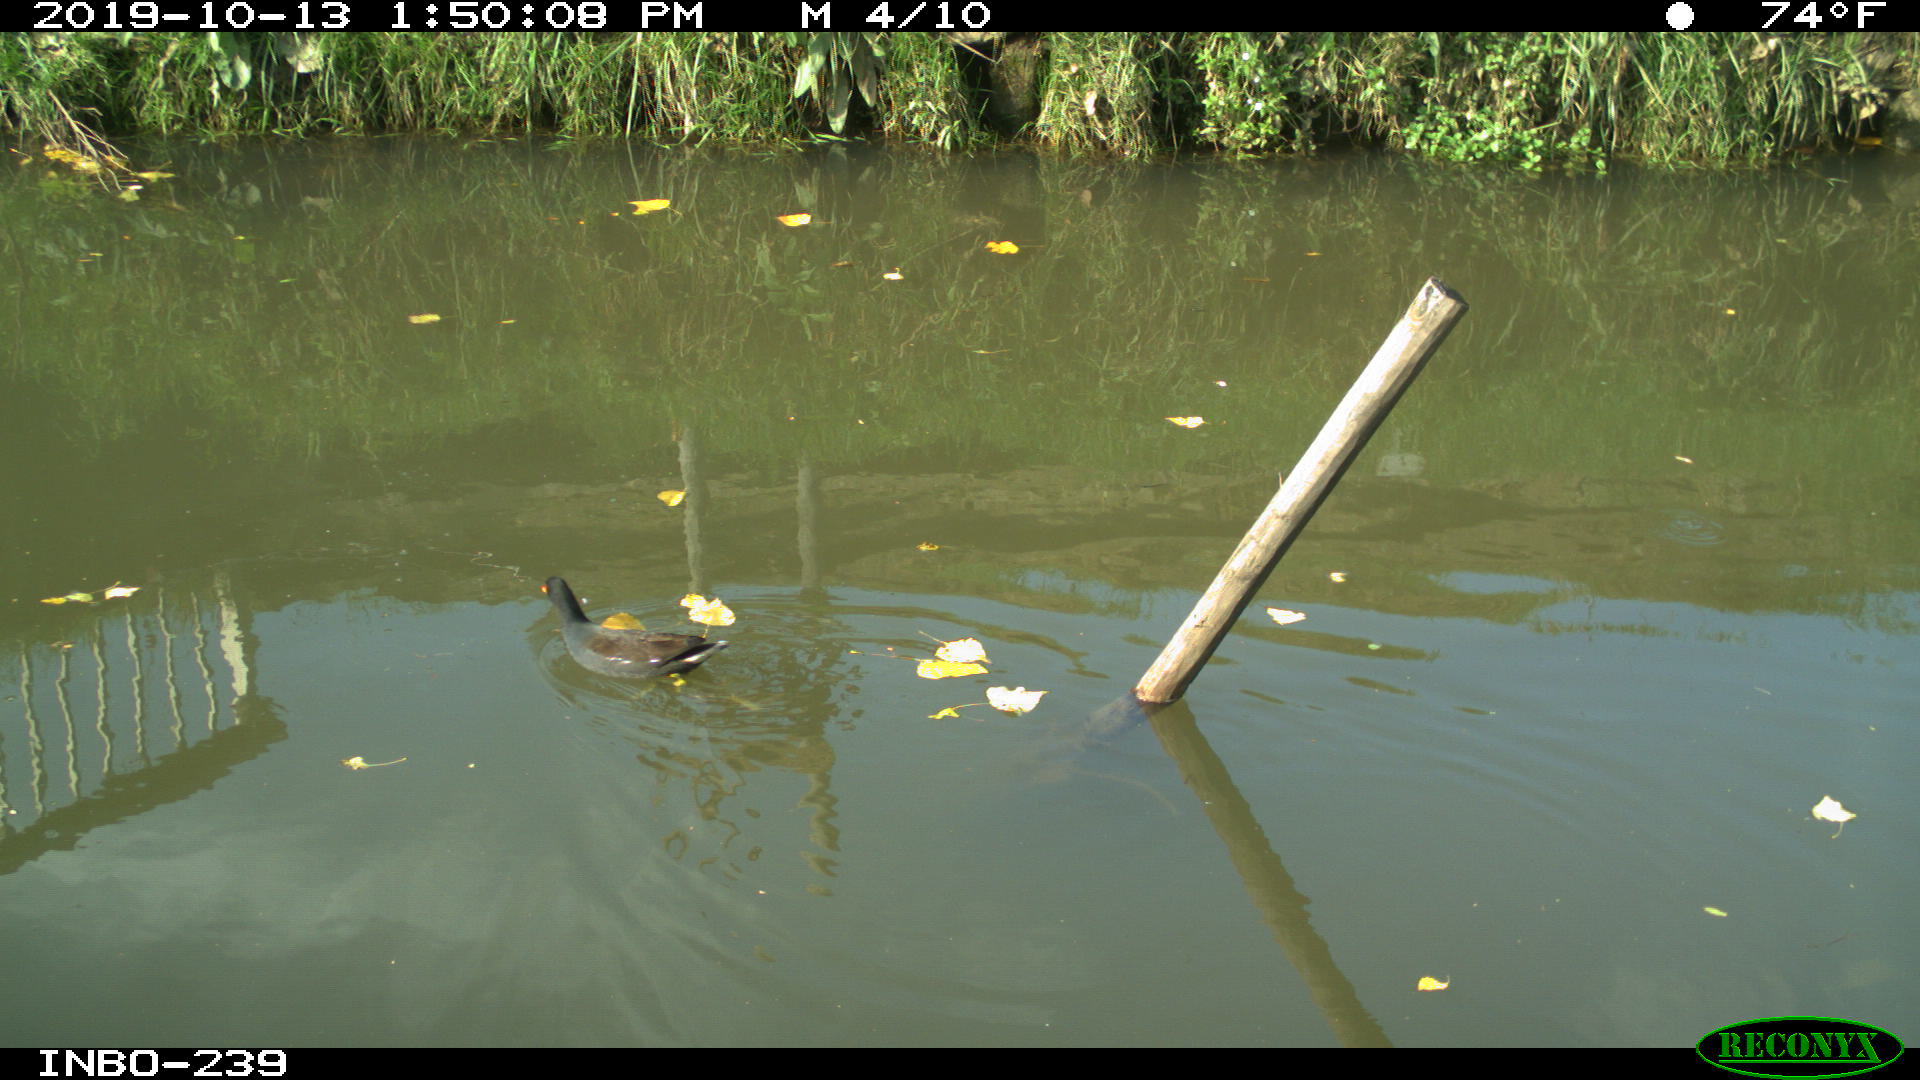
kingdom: Animalia
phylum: Chordata
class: Aves
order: Gruiformes
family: Rallidae
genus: Gallinula
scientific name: Gallinula chloropus
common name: Common moorhen
